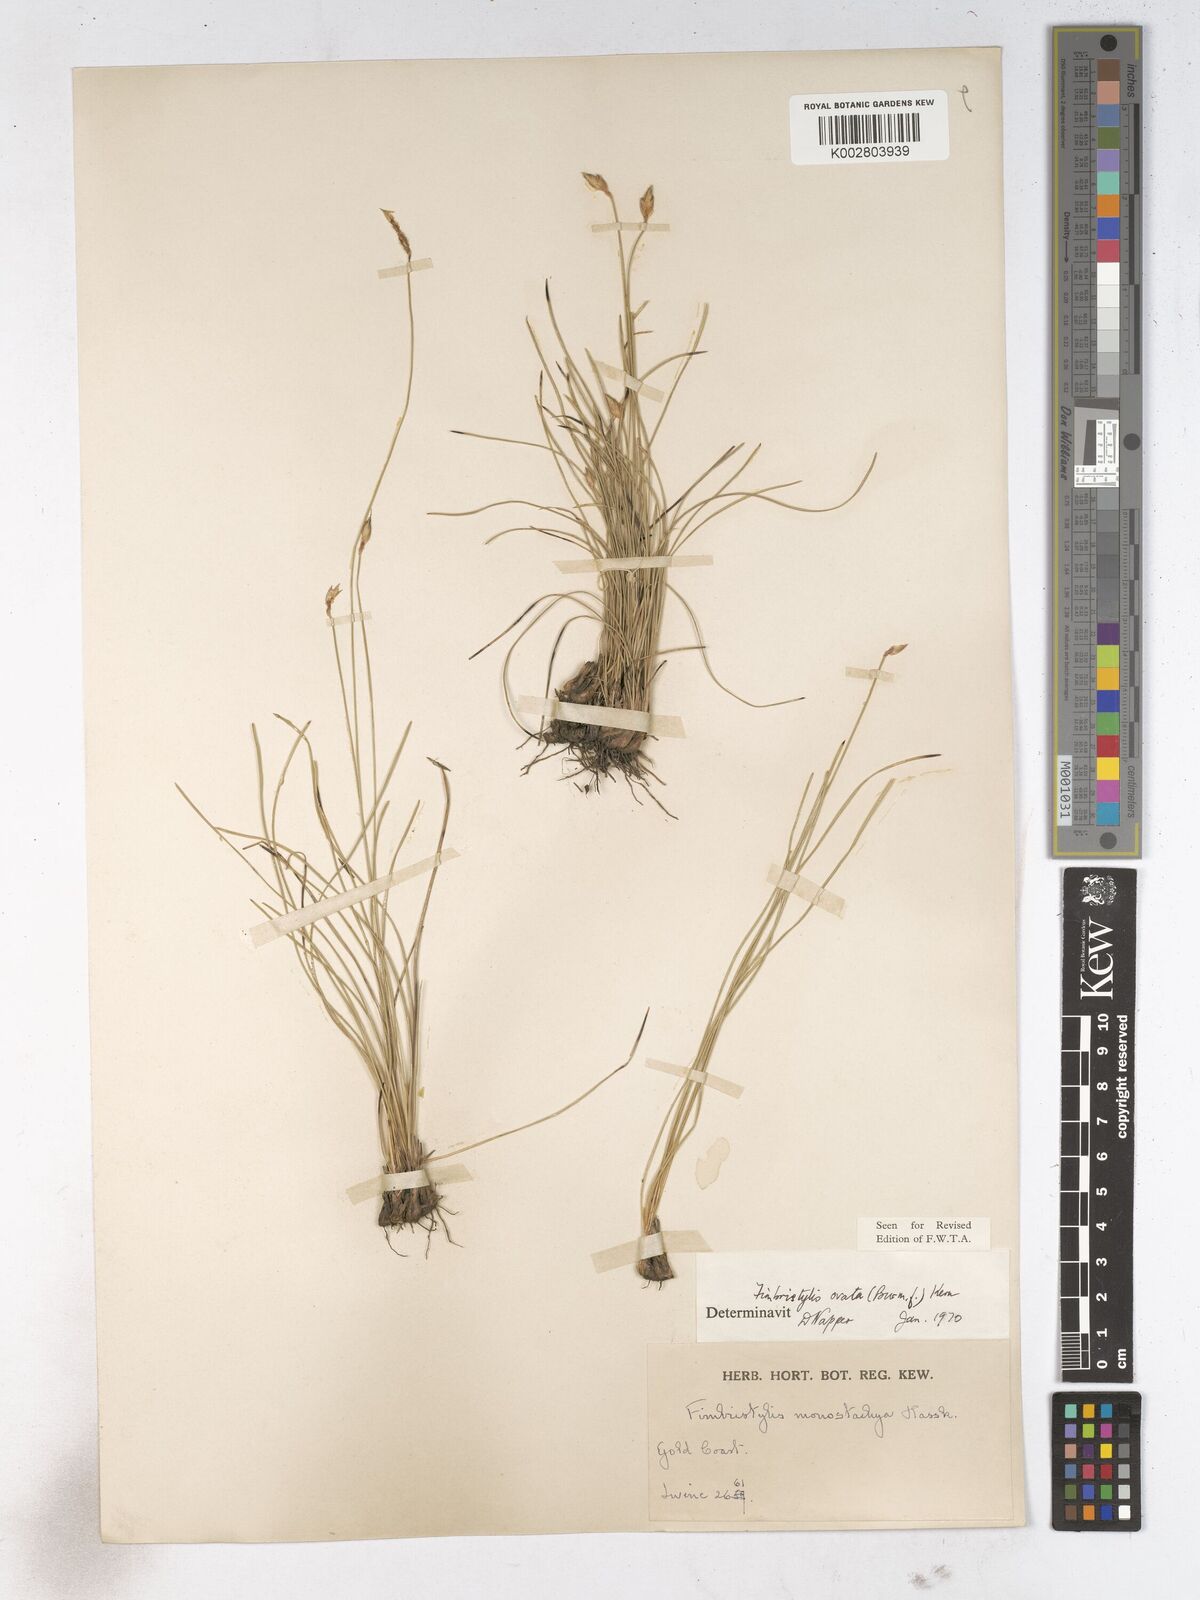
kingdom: Plantae
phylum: Tracheophyta
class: Liliopsida
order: Poales
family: Cyperaceae
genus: Abildgaardia
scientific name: Abildgaardia ovata
